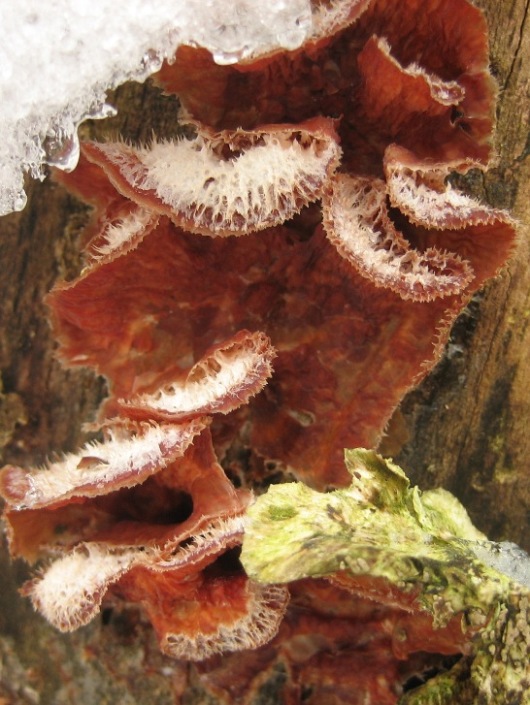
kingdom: Fungi
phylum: Basidiomycota
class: Agaricomycetes
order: Polyporales
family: Meruliaceae
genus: Phlebia
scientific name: Phlebia tremellosa
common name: bævrende åresvamp
